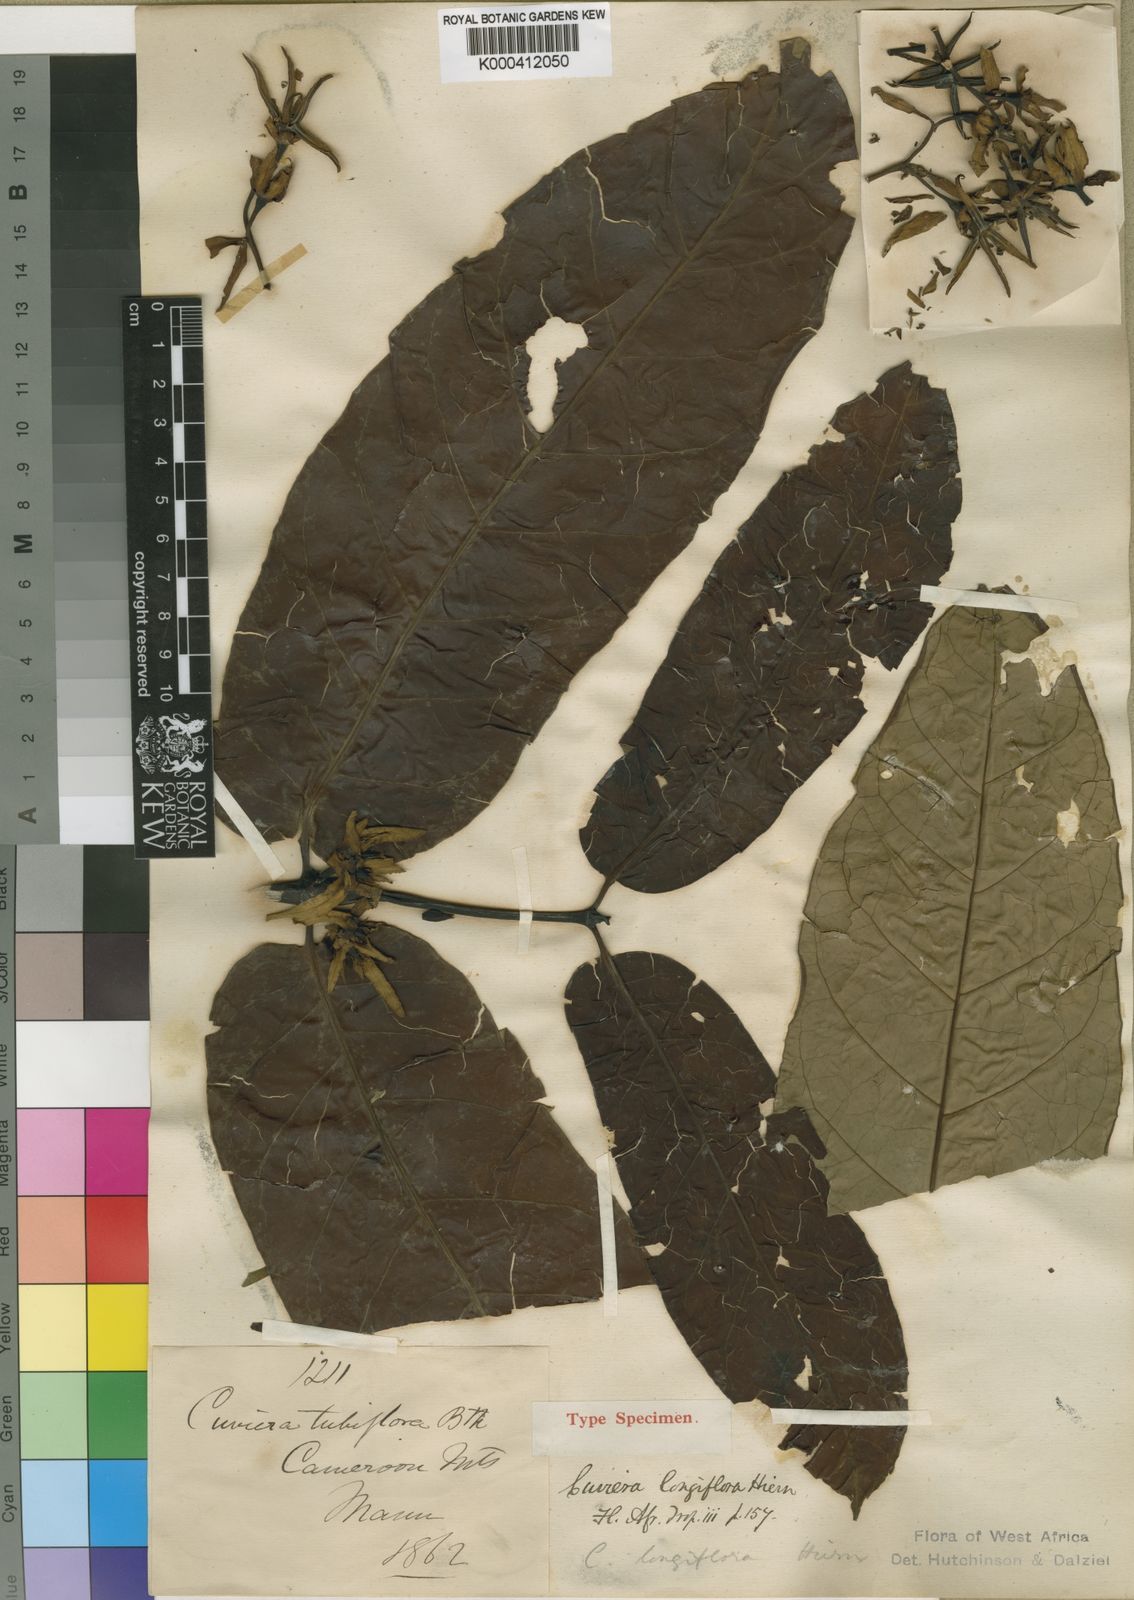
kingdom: Plantae
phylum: Tracheophyta
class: Magnoliopsida
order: Gentianales
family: Rubiaceae
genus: Cuviera
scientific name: Cuviera longiflora
